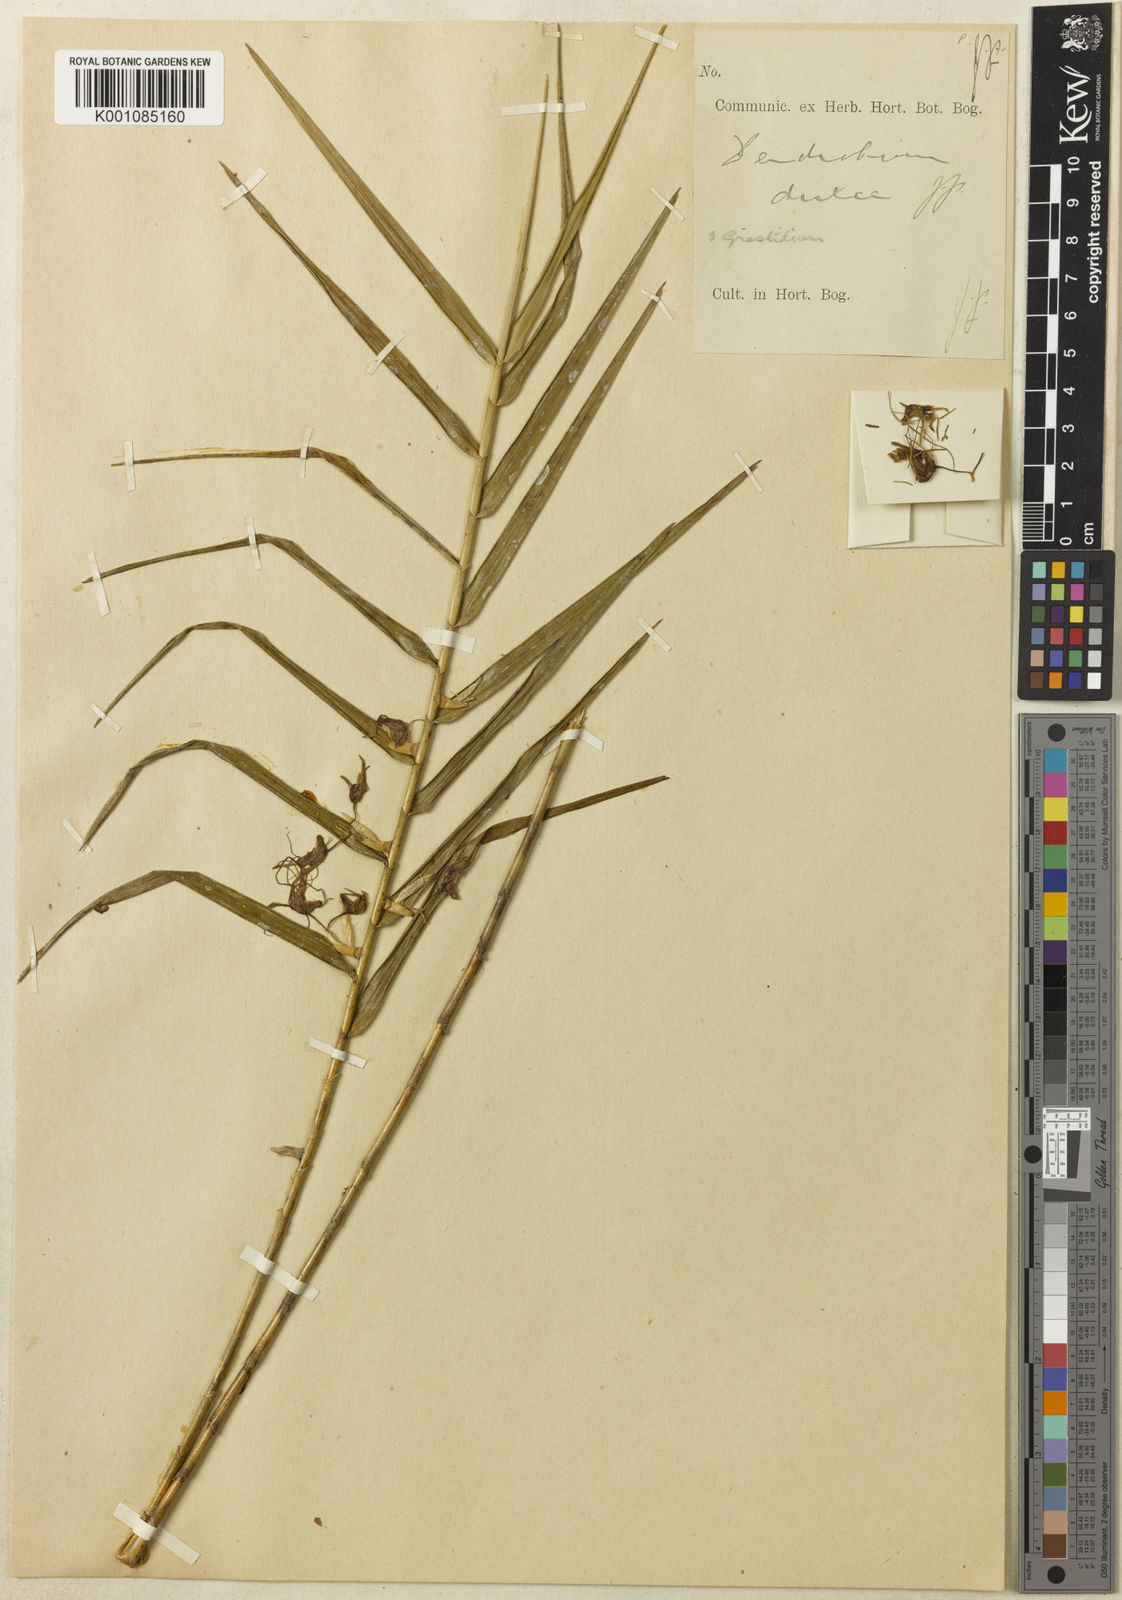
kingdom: Plantae
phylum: Tracheophyta
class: Liliopsida
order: Asparagales
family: Orchidaceae
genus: Dendrobium
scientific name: Dendrobium
